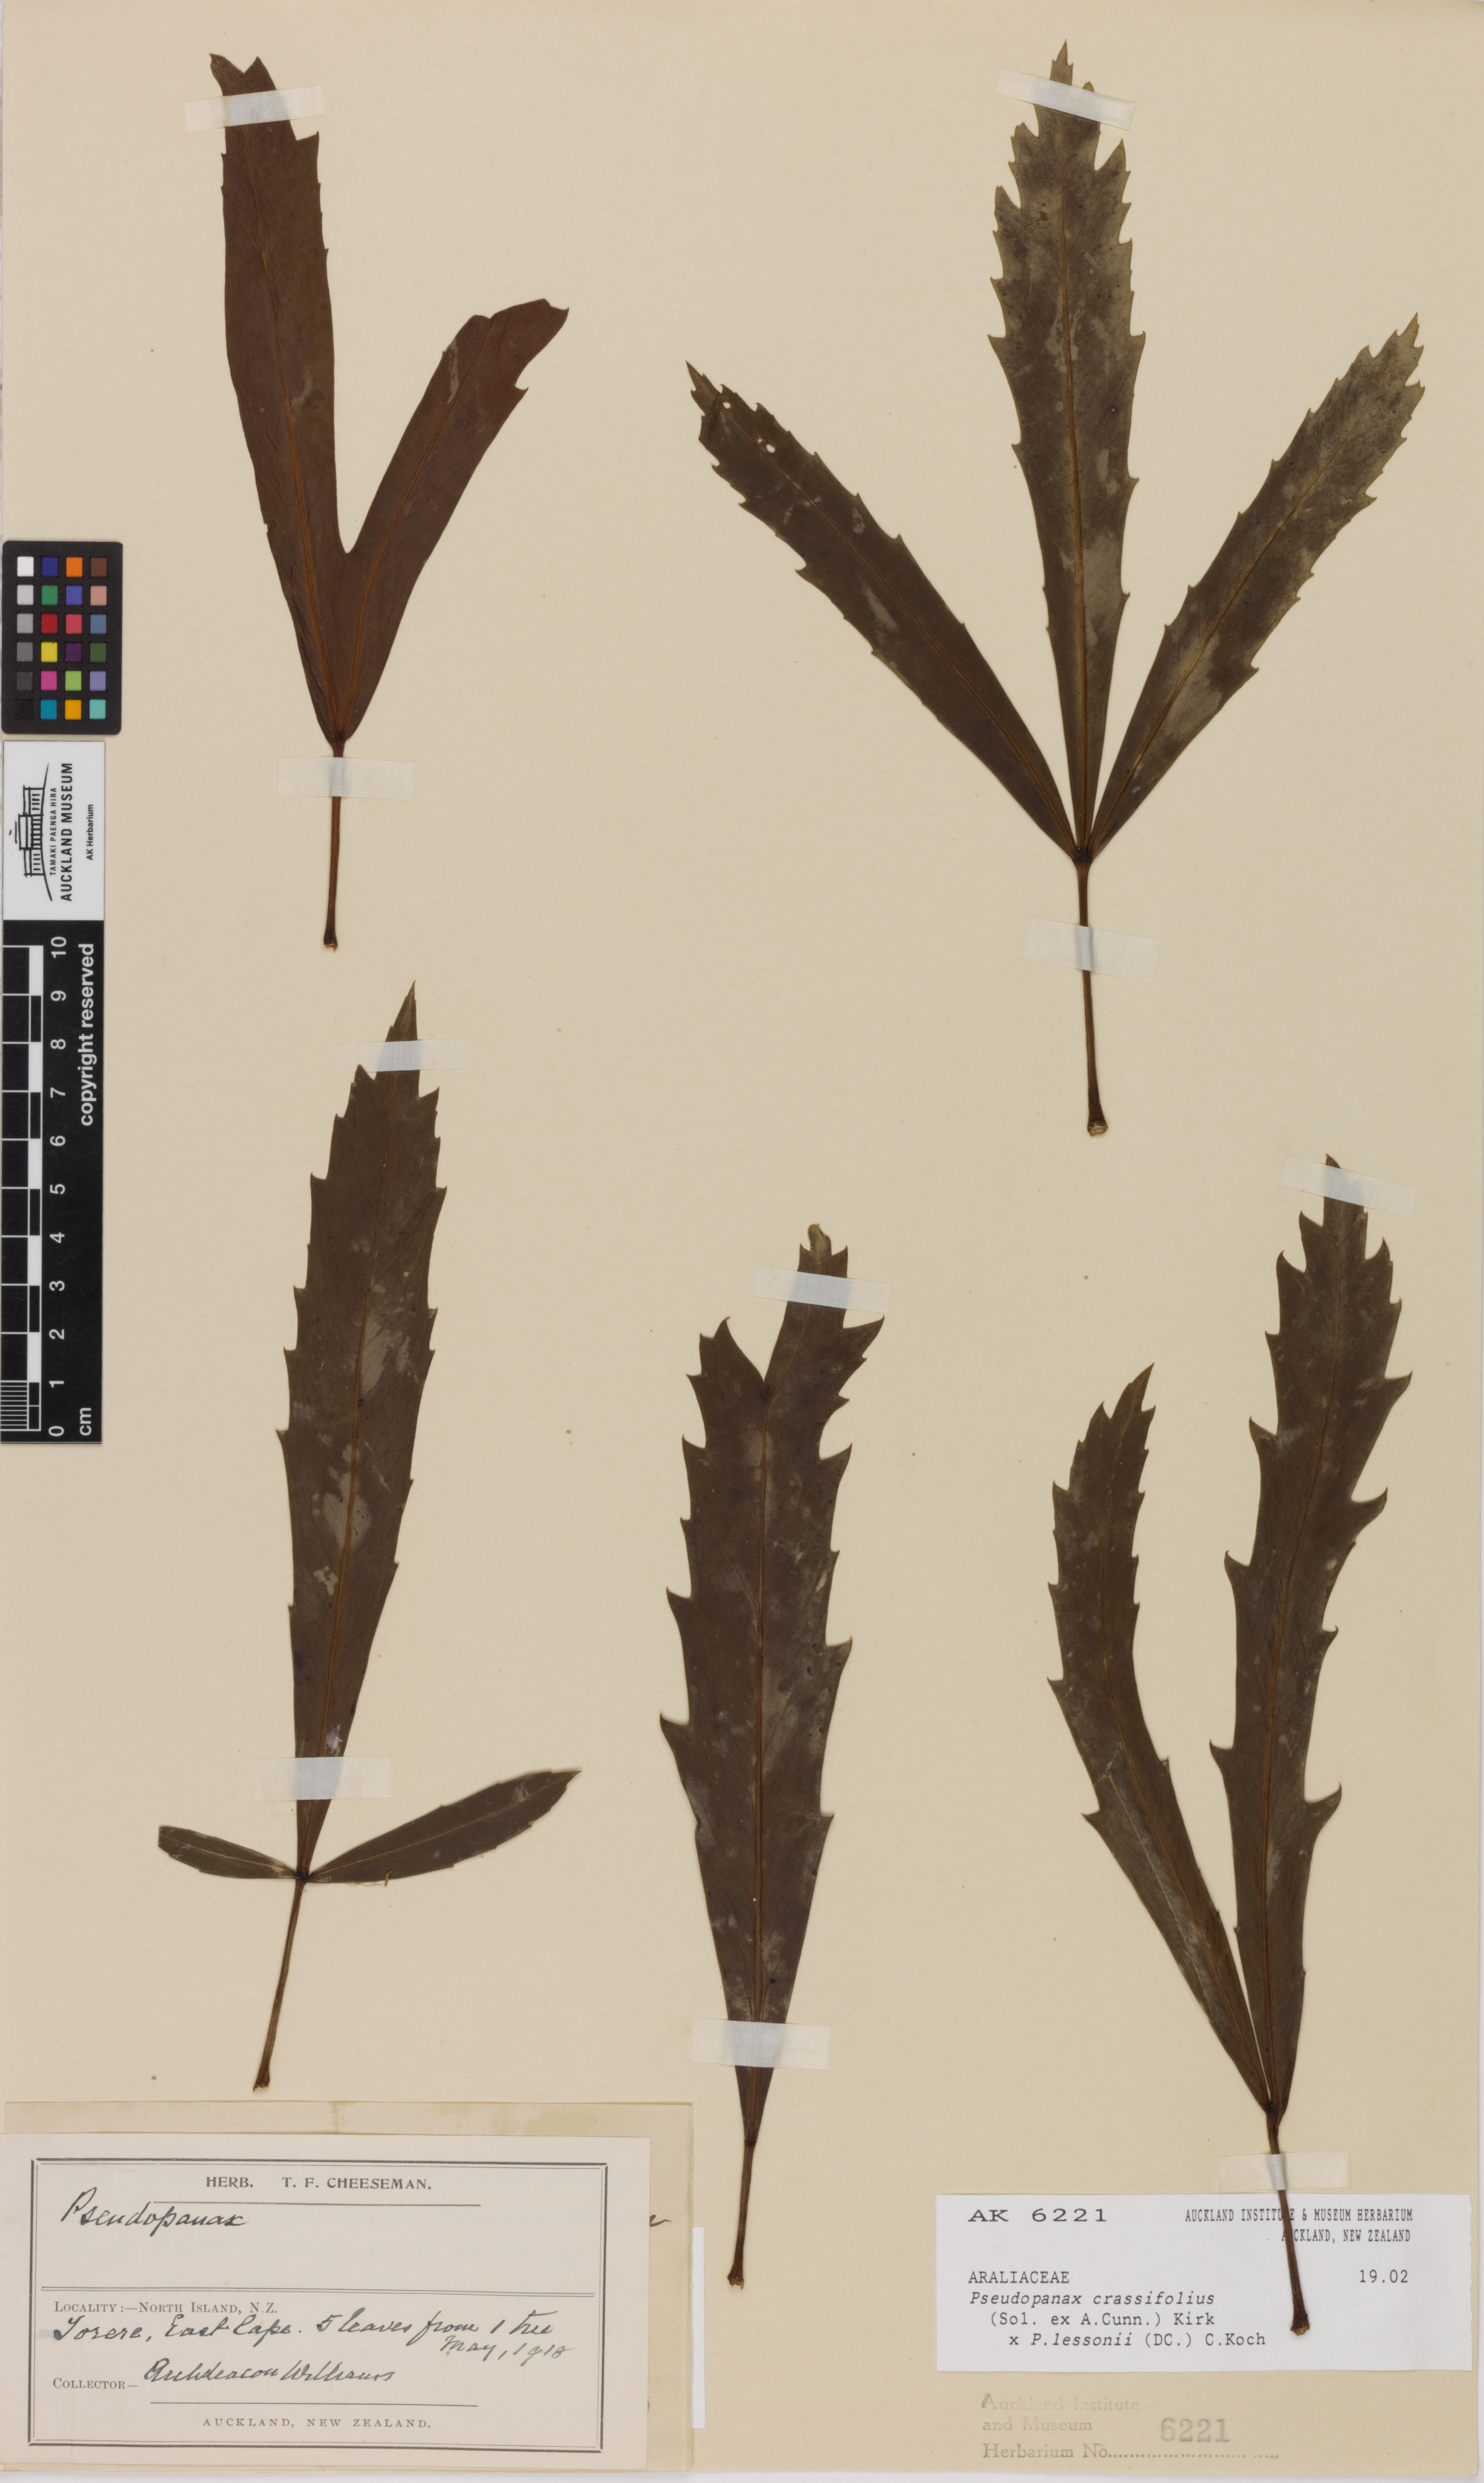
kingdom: Plantae
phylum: Tracheophyta
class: Magnoliopsida
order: Apiales
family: Araliaceae
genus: Pseudopanax
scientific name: Pseudopanax
